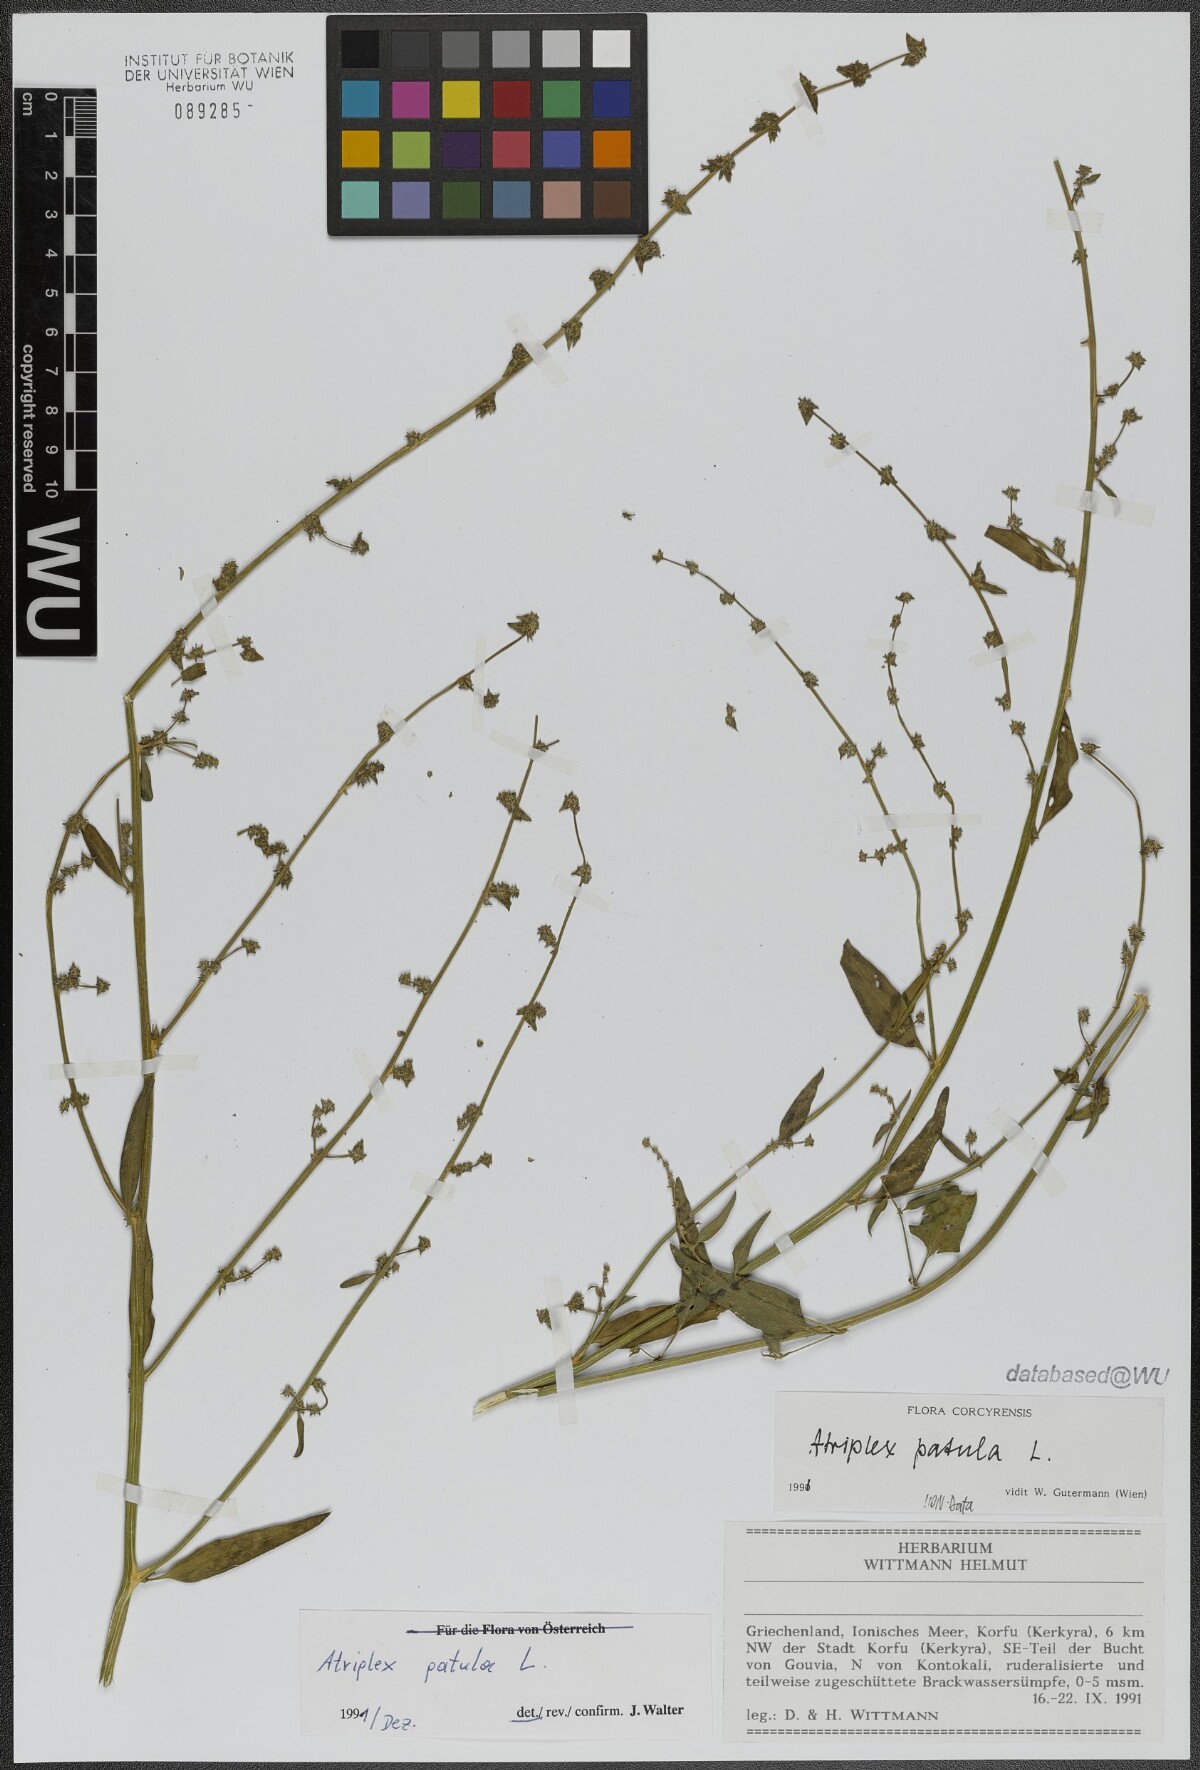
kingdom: Plantae
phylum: Tracheophyta
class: Magnoliopsida
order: Caryophyllales
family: Amaranthaceae
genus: Atriplex
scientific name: Atriplex patula
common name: Common orache
